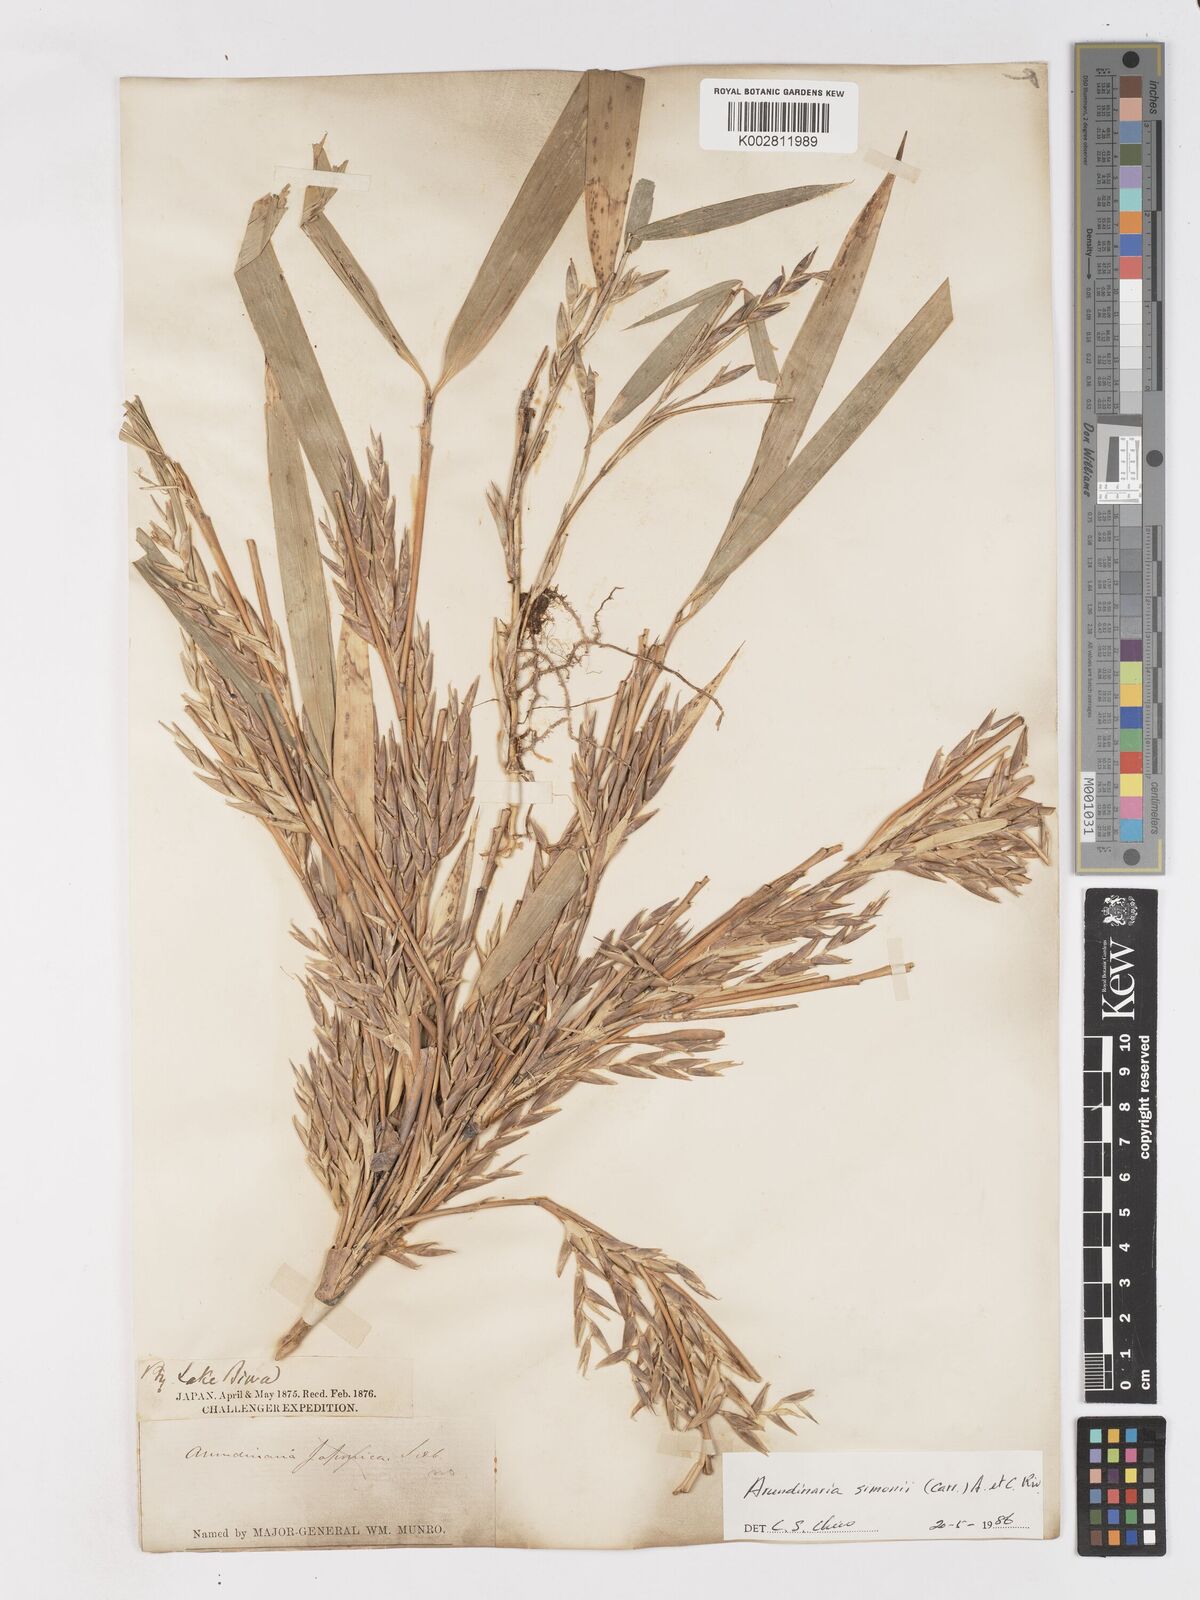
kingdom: Plantae
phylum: Tracheophyta
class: Liliopsida
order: Poales
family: Poaceae
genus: Pleioblastus
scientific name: Pleioblastus simonii
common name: Simon bamboo
